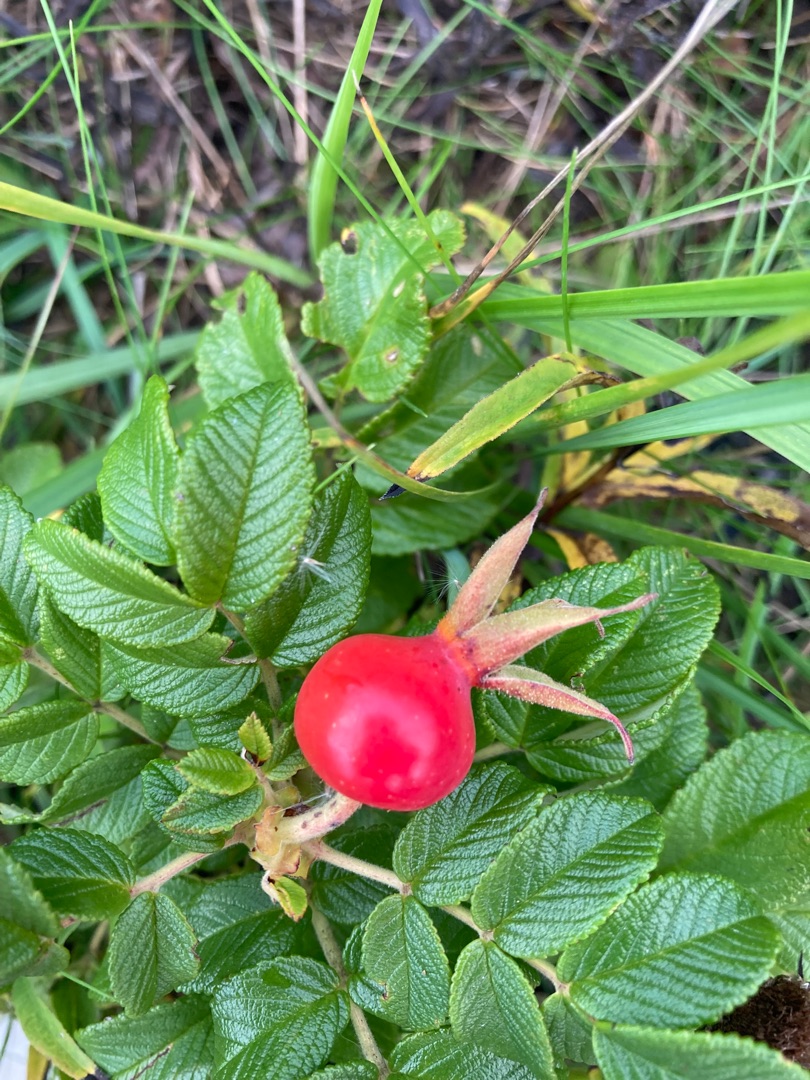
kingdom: Plantae
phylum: Tracheophyta
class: Magnoliopsida
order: Rosales
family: Rosaceae
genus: Rosa
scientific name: Rosa rugosa
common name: Rynket rose
